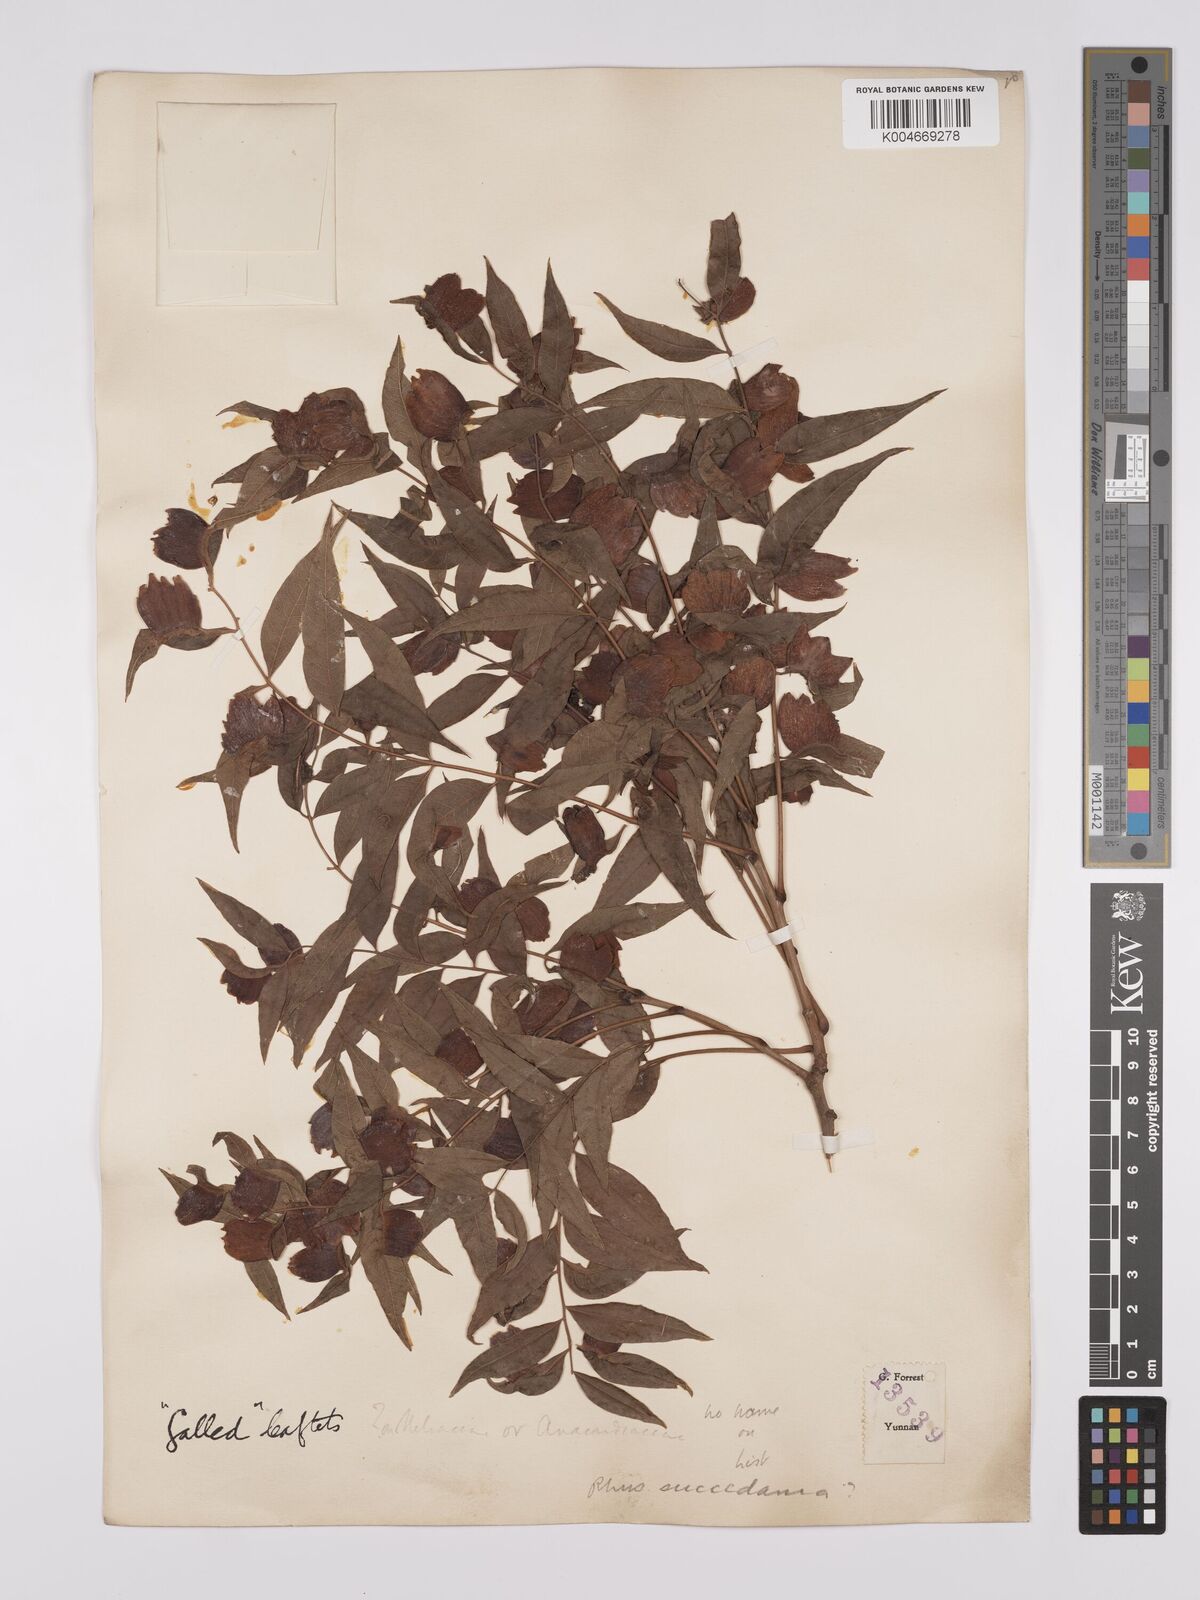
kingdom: Plantae
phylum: Tracheophyta
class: Magnoliopsida
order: Sapindales
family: Anacardiaceae
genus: Toxicodendron
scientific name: Toxicodendron succedaneum
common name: Wax tree
